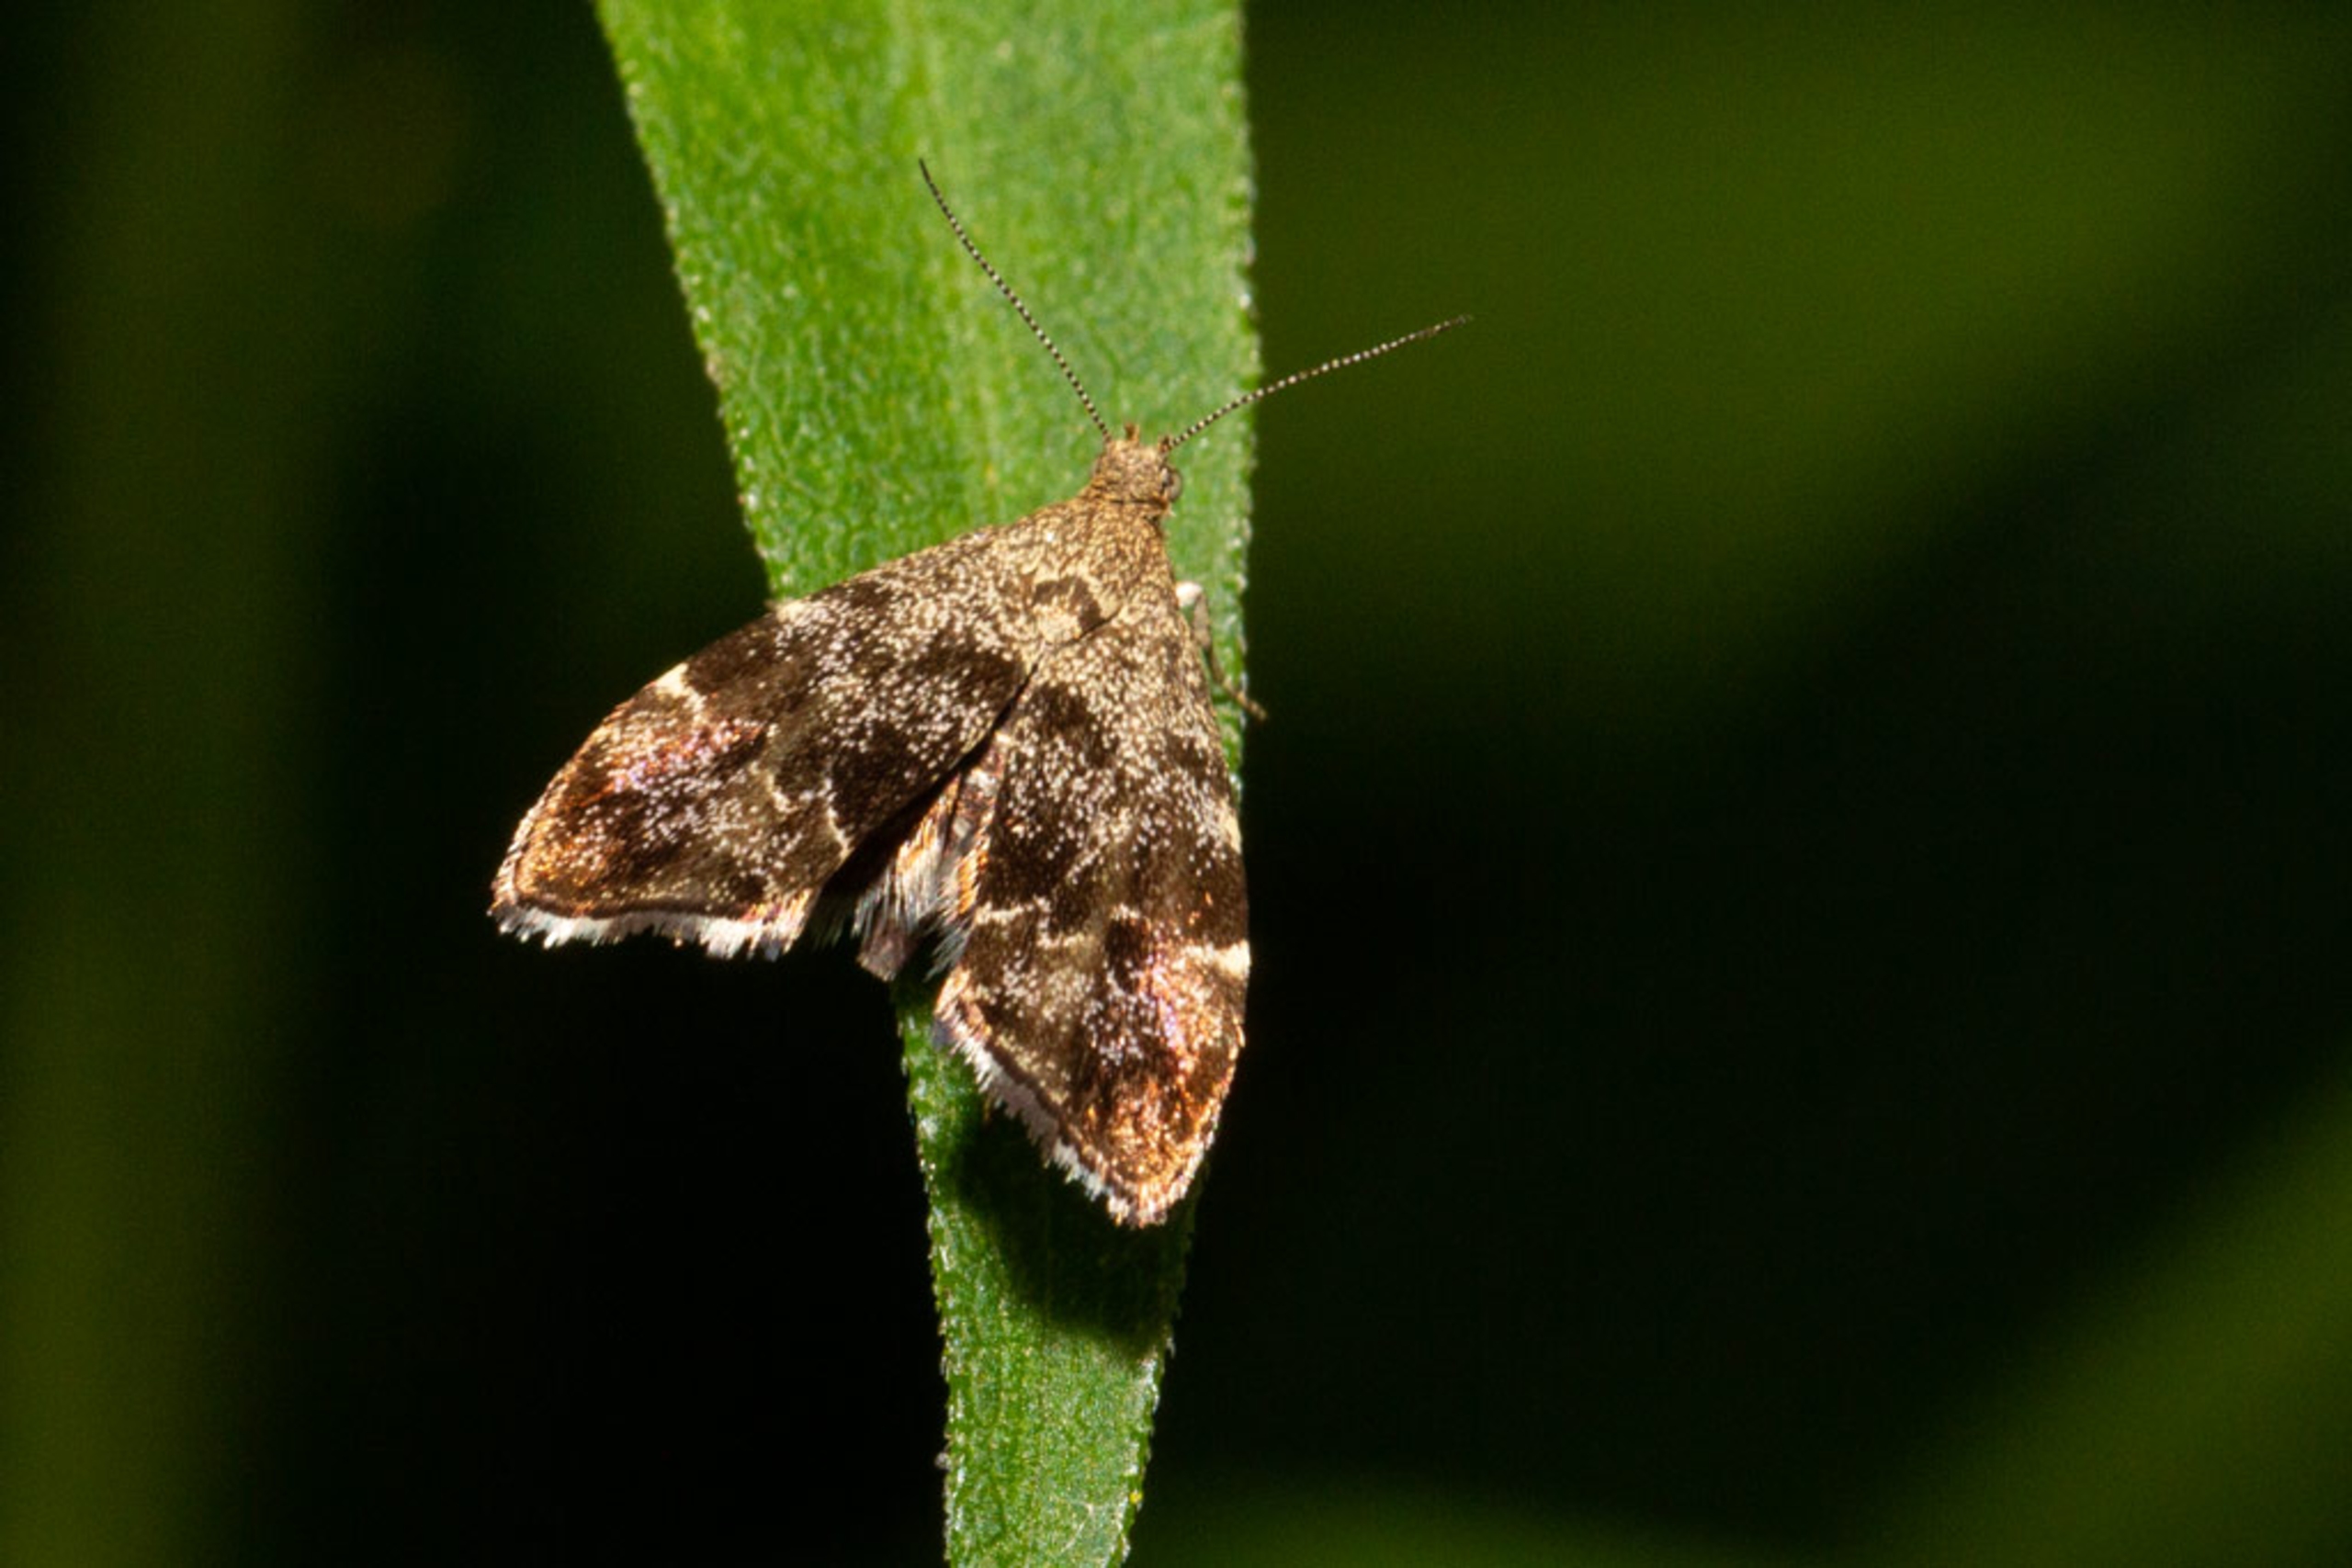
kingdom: Animalia
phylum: Arthropoda
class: Insecta
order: Lepidoptera
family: Choreutidae
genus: Anthophila
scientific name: Anthophila fabriciana
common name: Bredvinget nældevikler
